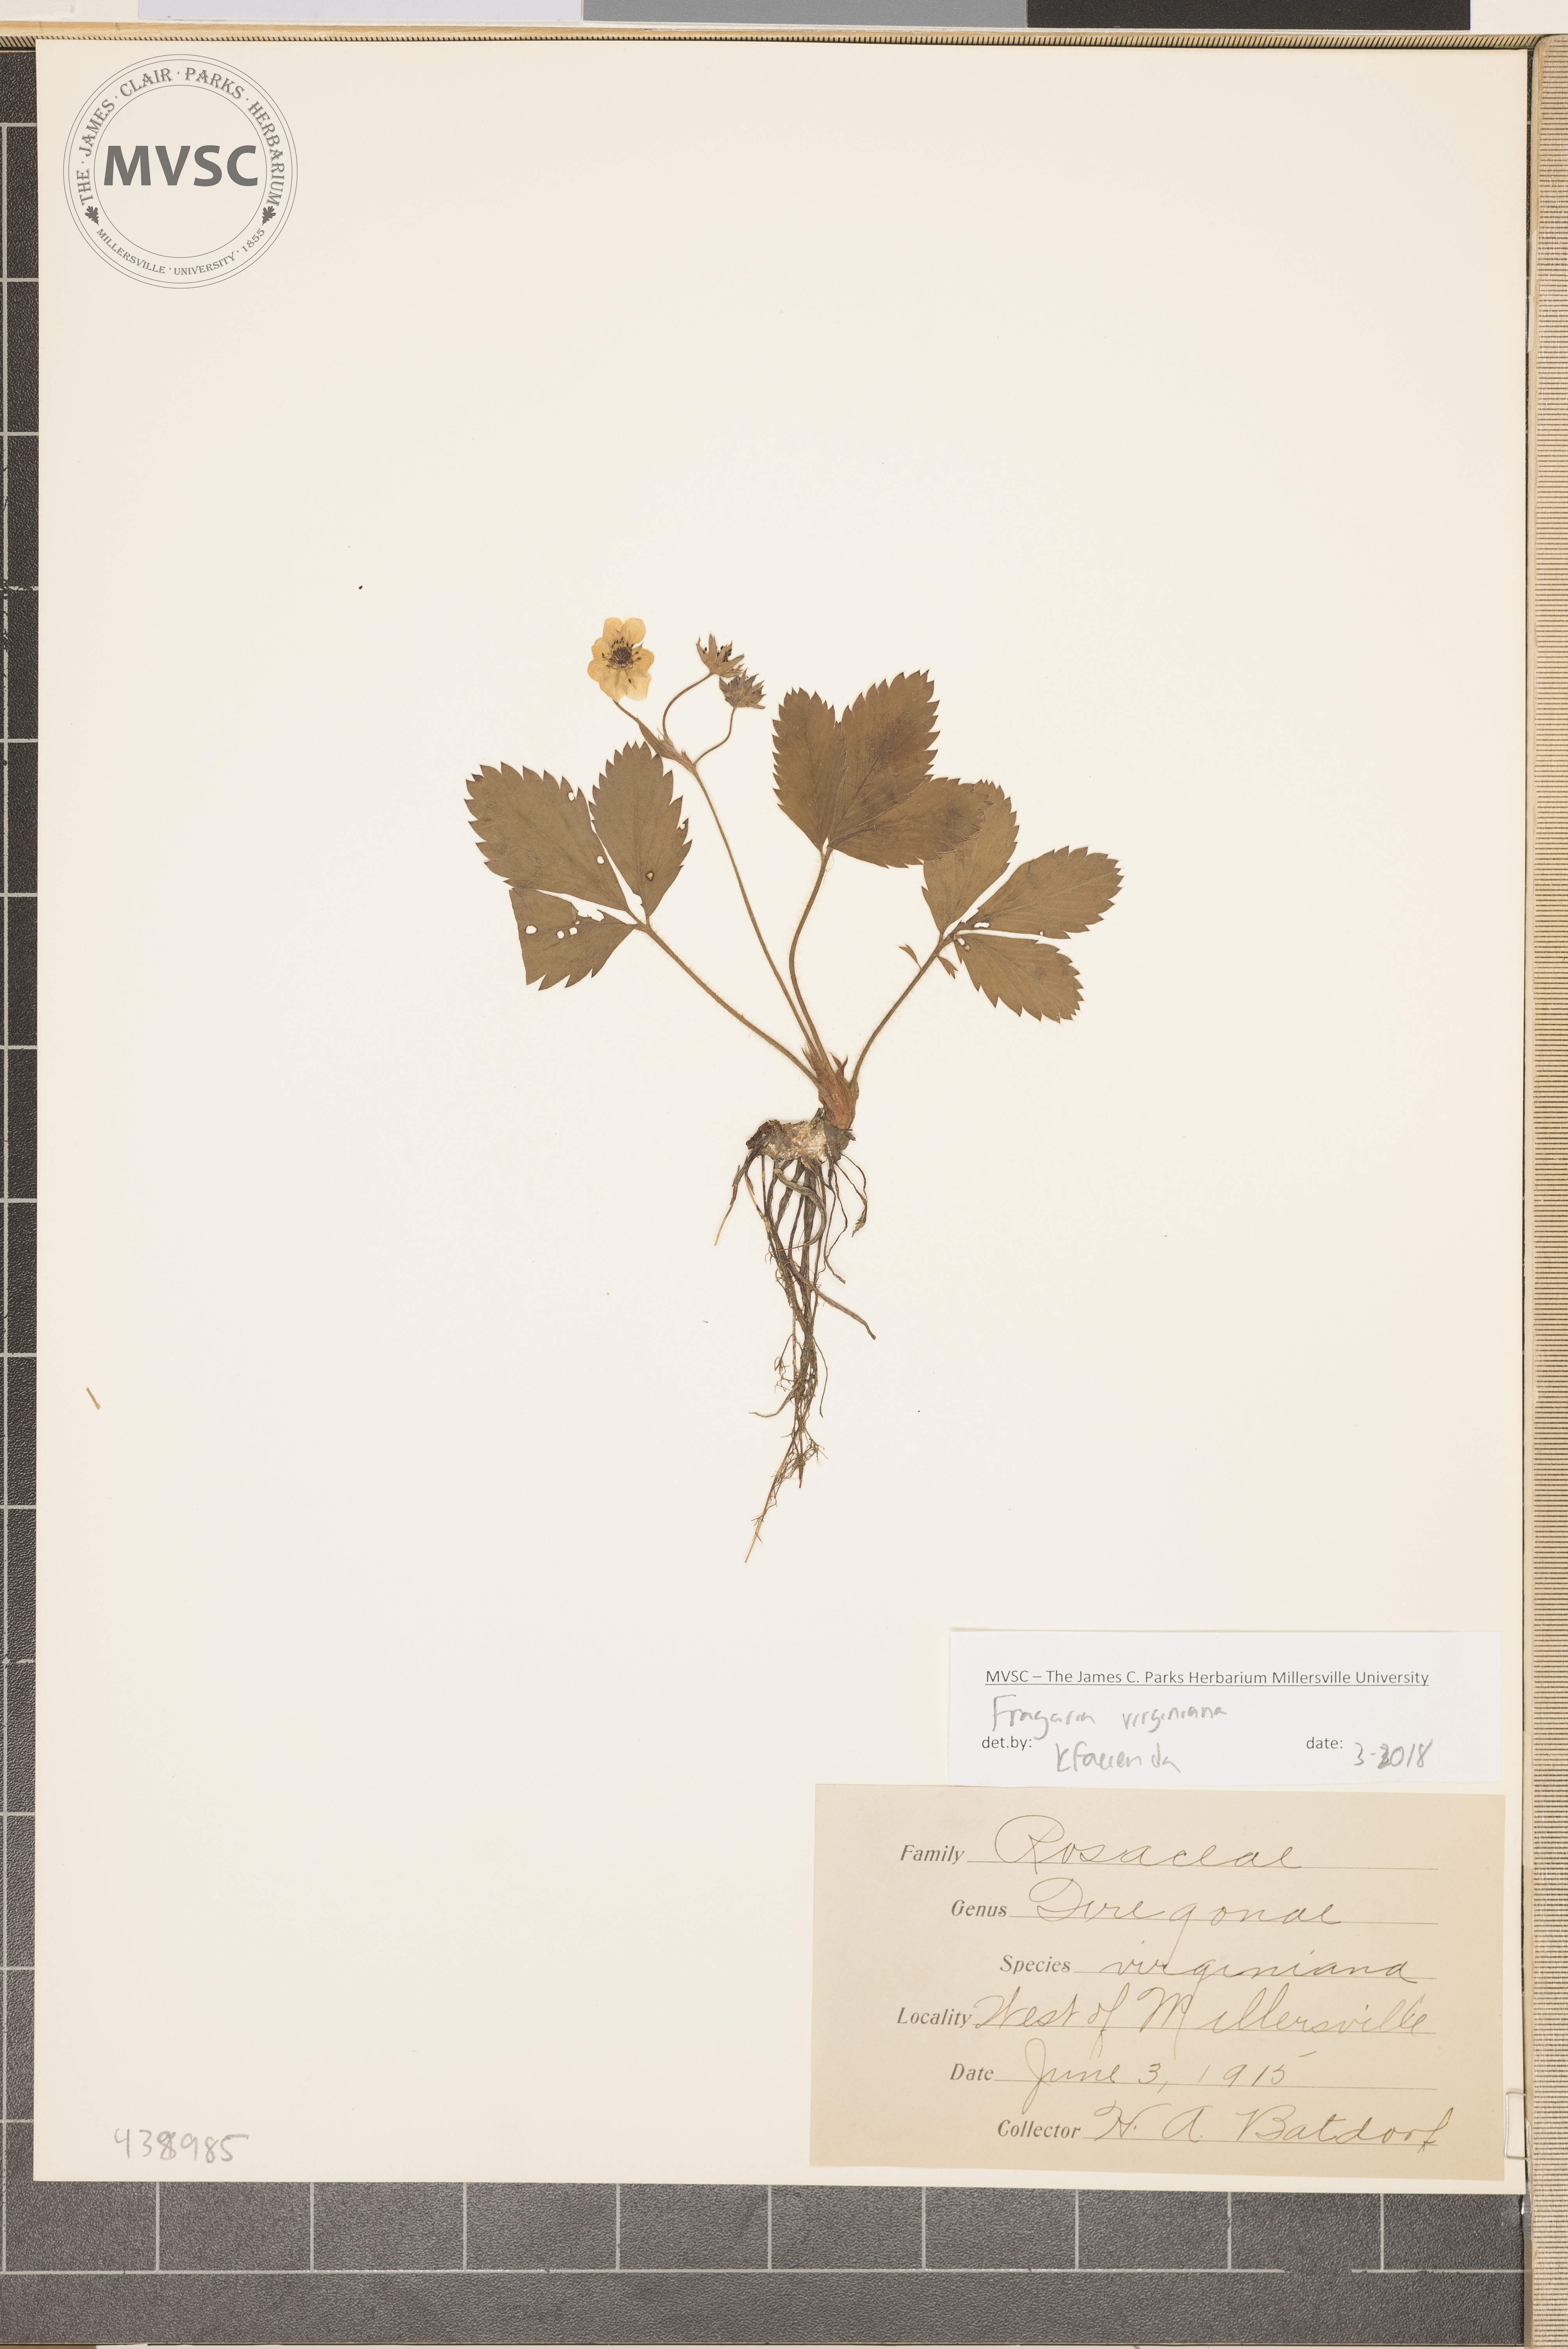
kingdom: Plantae
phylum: Tracheophyta
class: Magnoliopsida
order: Rosales
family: Rosaceae
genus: Fragaria
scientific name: Fragaria virginiana
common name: Thickleaved wild strawberry
